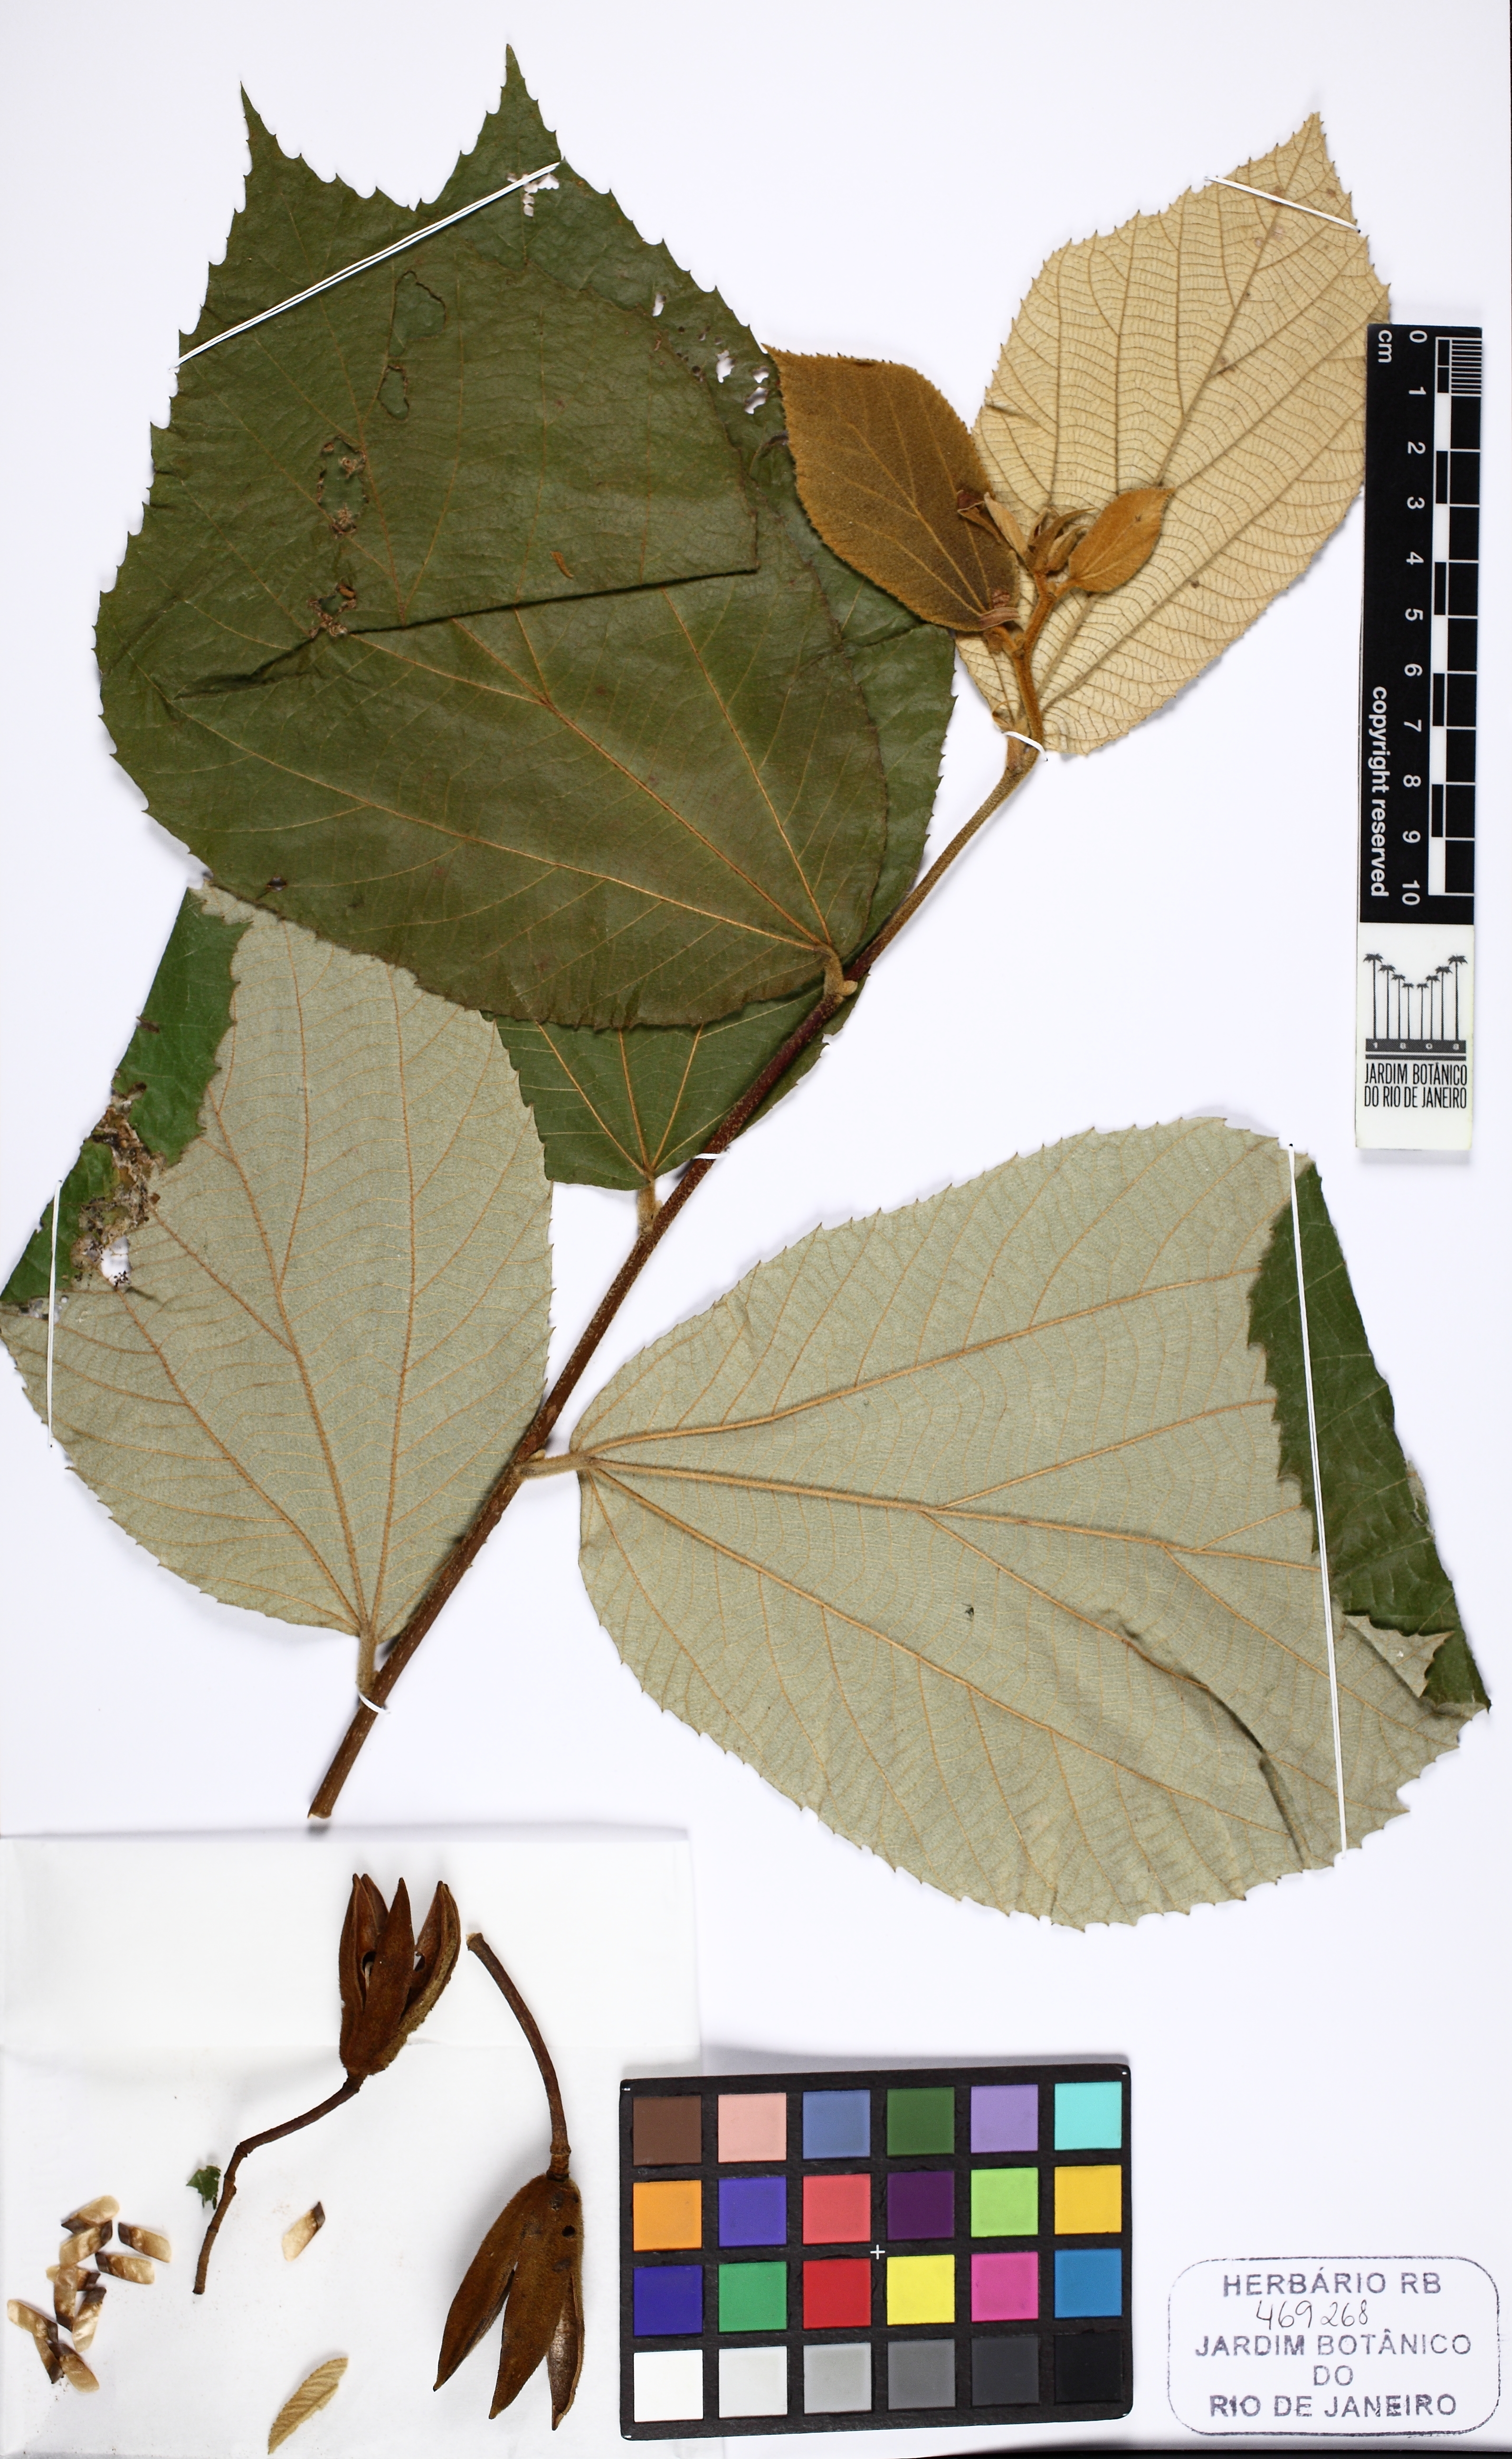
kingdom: Plantae
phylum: Tracheophyta
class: Magnoliopsida
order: Malvales
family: Malvaceae
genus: Luehea
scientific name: Luehea rufescens
